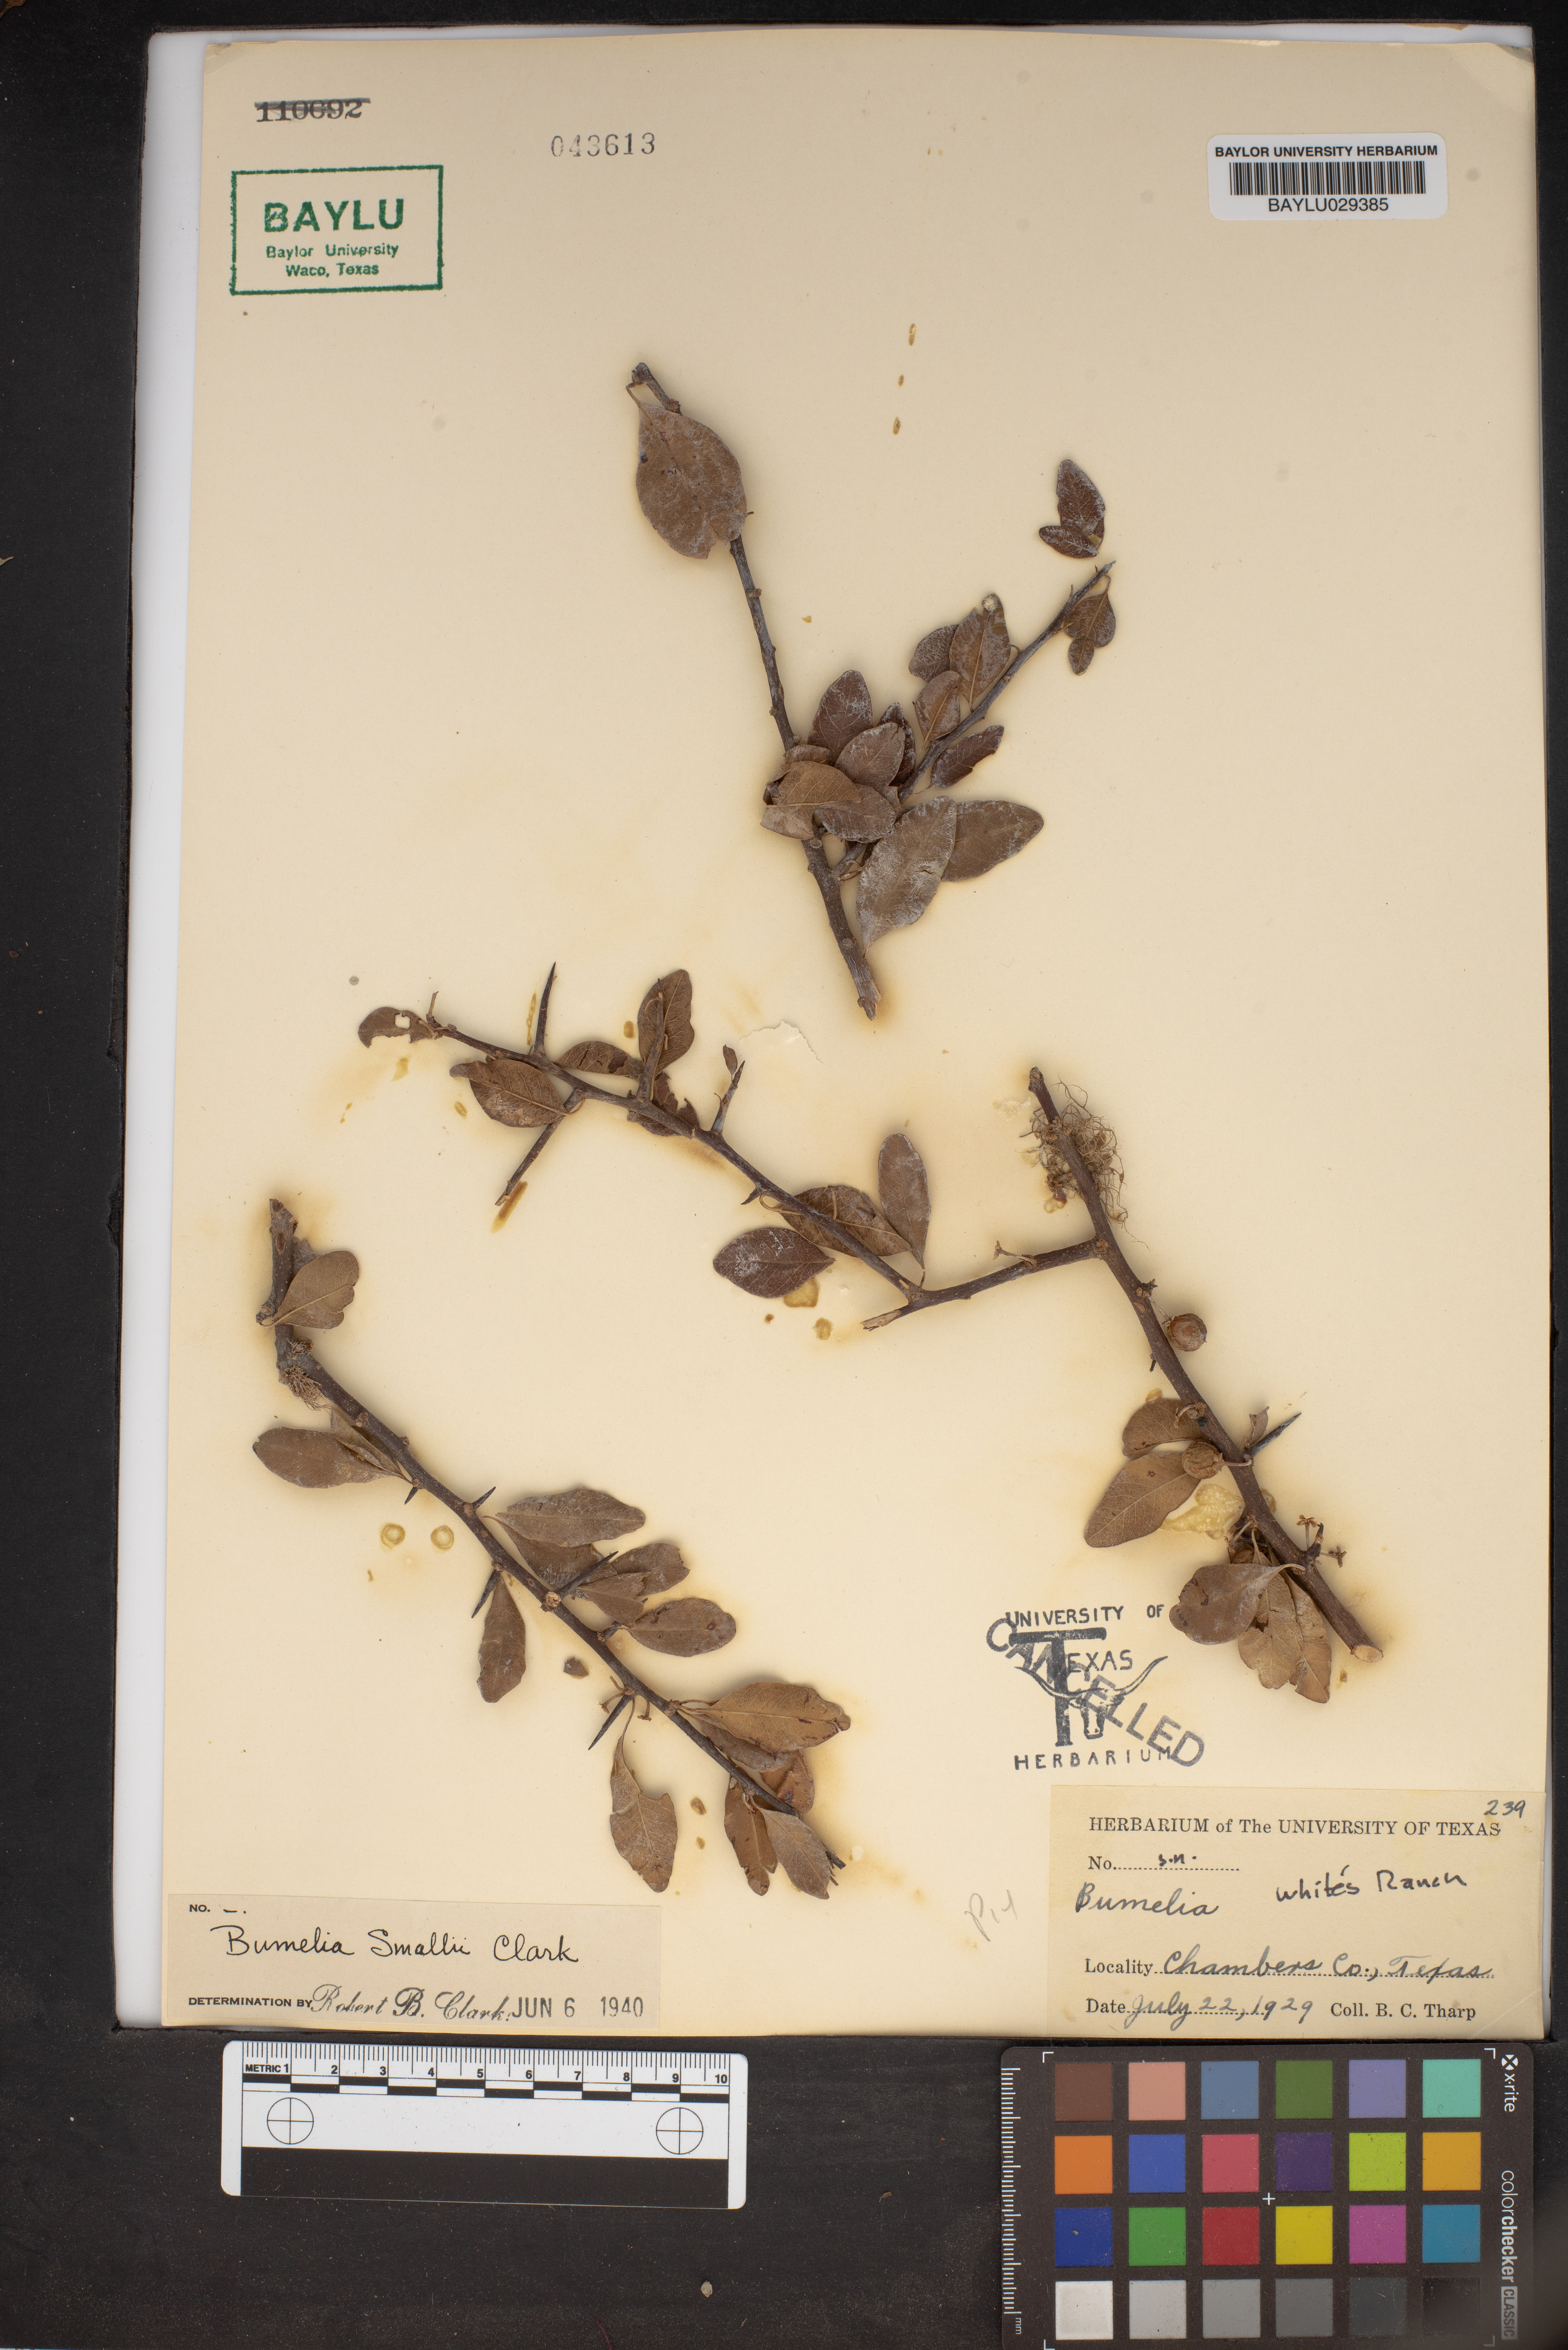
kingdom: Plantae
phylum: Tracheophyta
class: Magnoliopsida
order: Ericales
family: Sapotaceae
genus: Sideroxylon
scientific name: Sideroxylon lycioides
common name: Buckthorn bumelia
